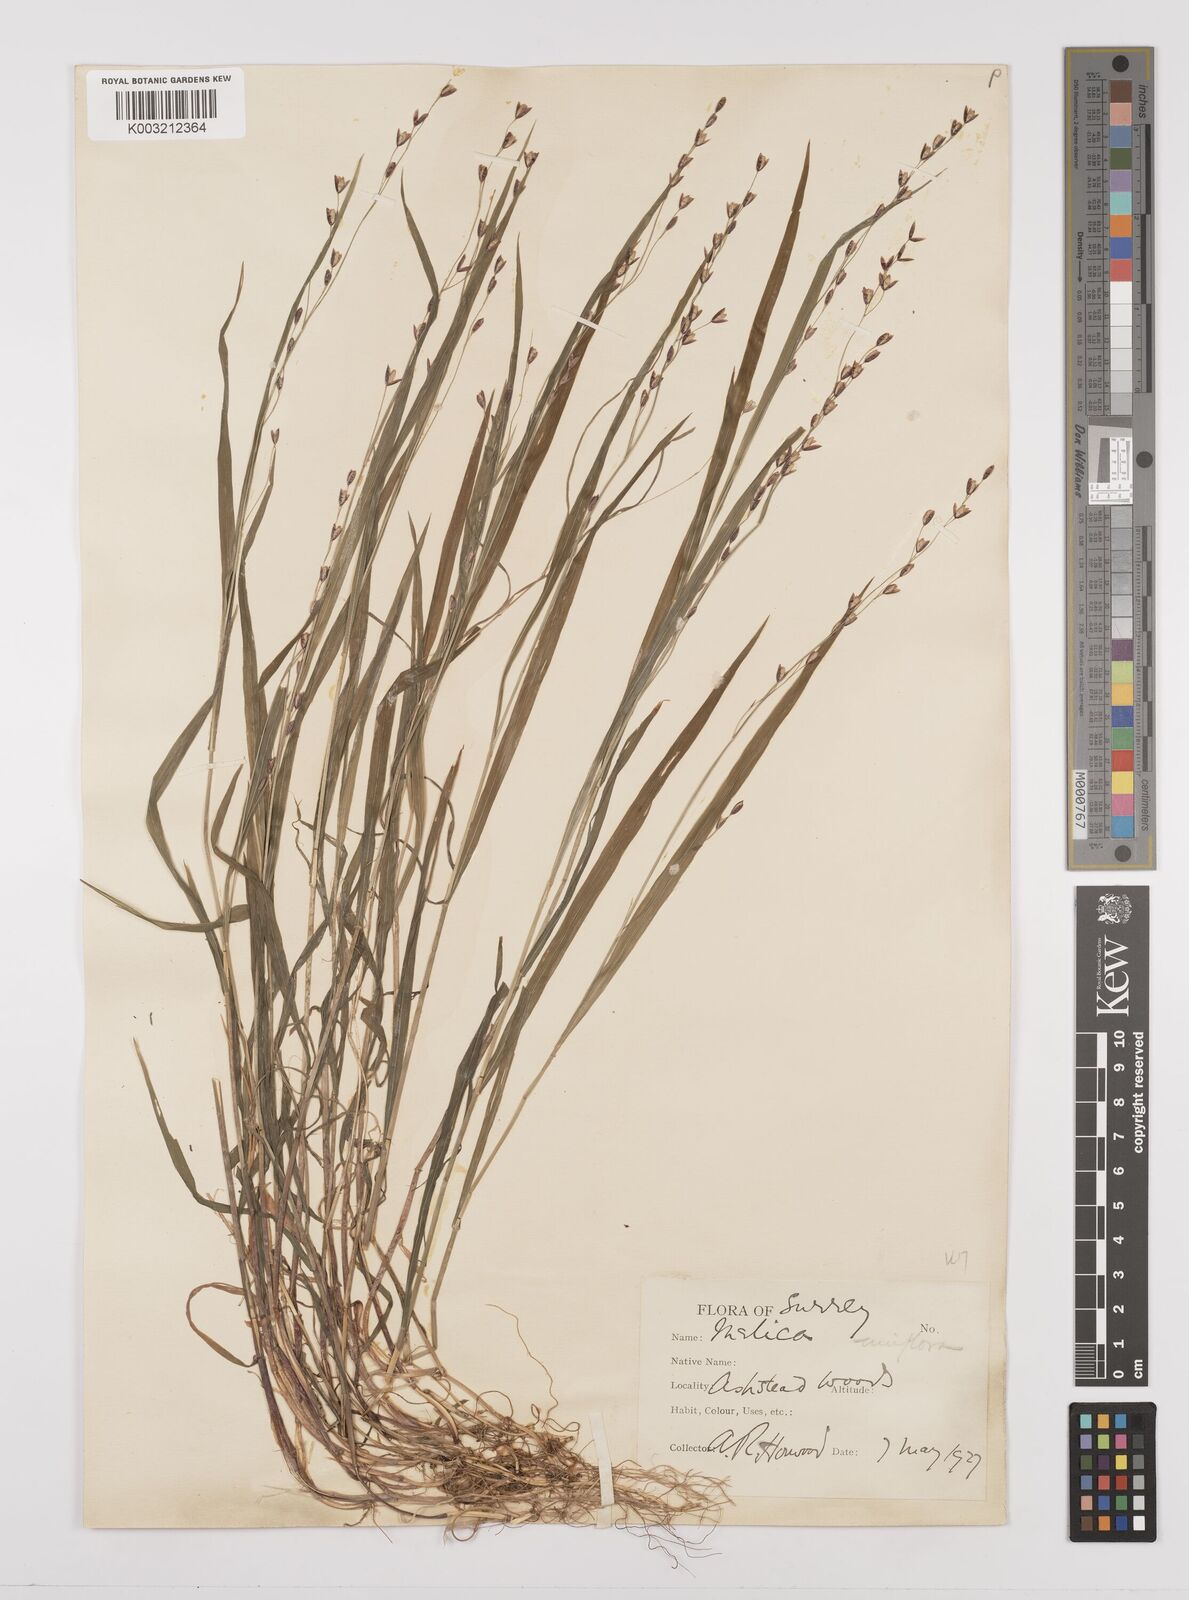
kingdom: Plantae
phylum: Tracheophyta
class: Liliopsida
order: Poales
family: Poaceae
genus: Melica
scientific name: Melica uniflora
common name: Wood melick
